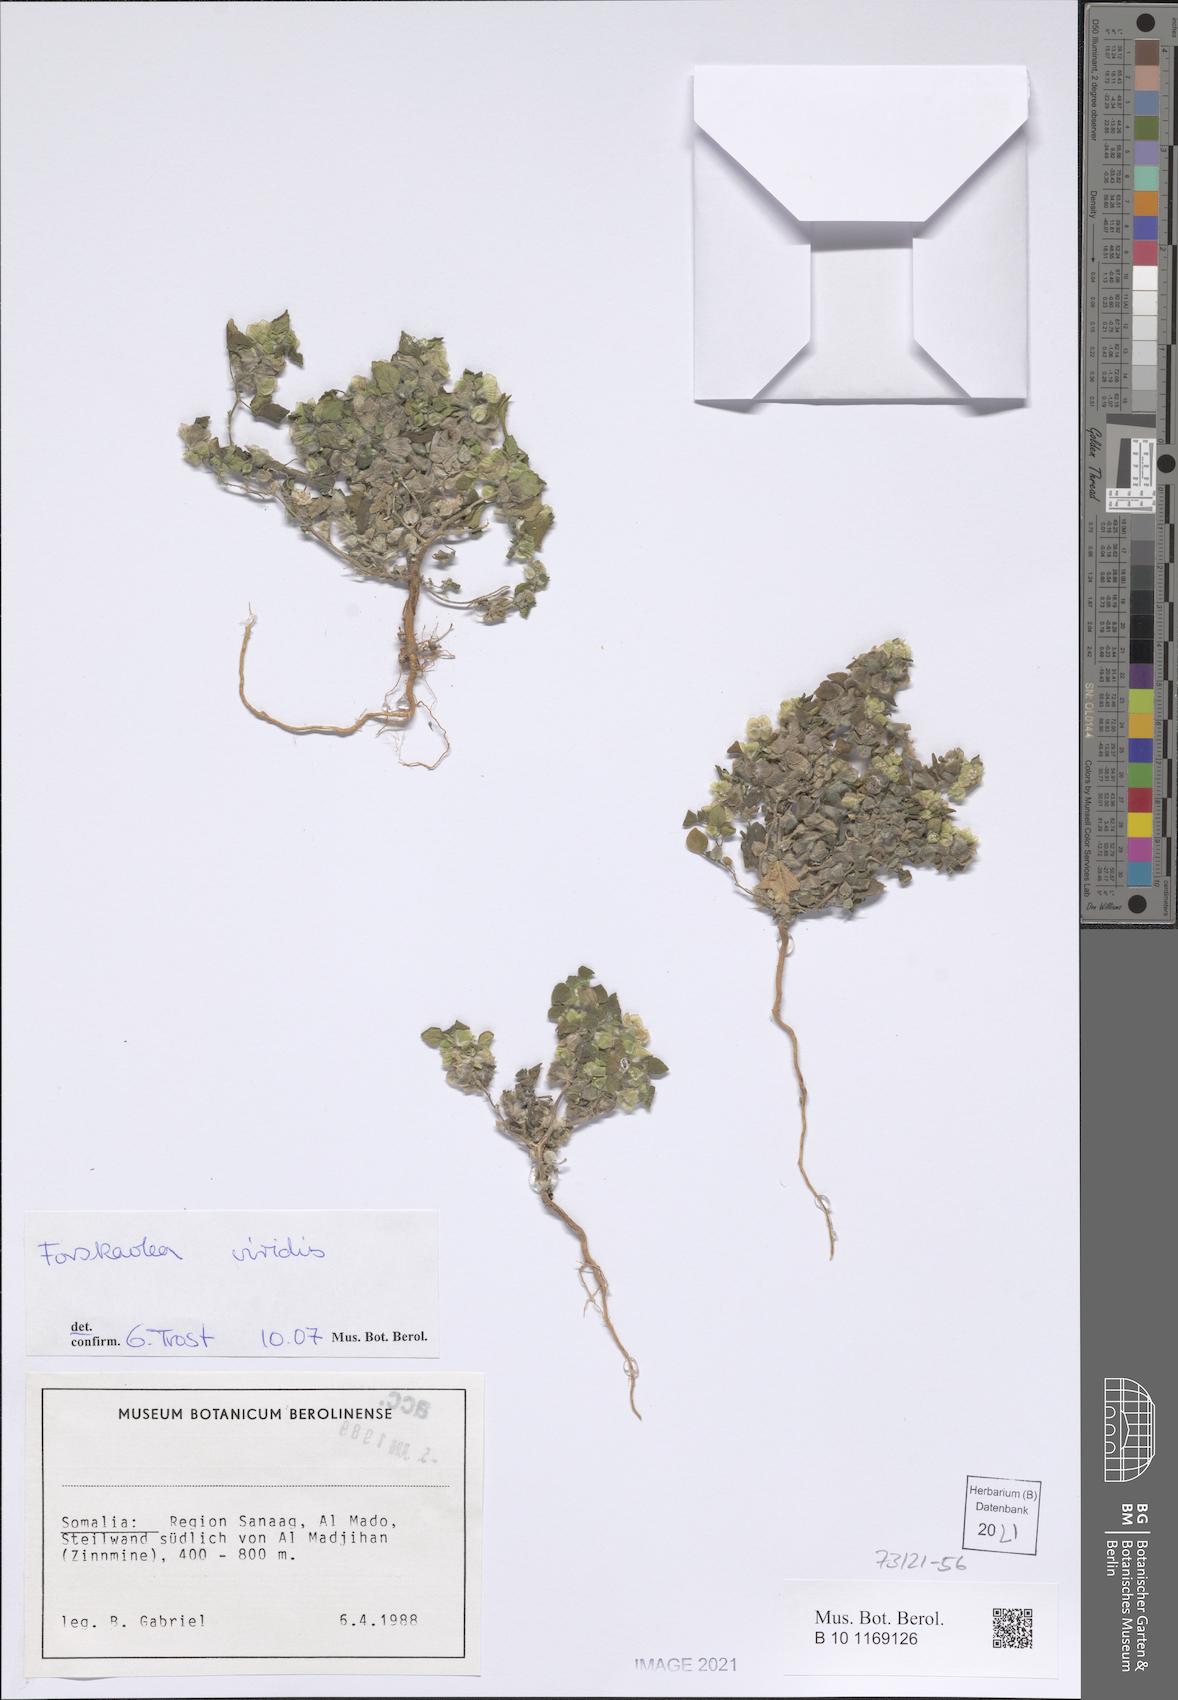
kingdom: Plantae
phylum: Tracheophyta
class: Magnoliopsida
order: Rosales
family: Urticaceae
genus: Forsskaolea
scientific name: Forsskaolea viridis
